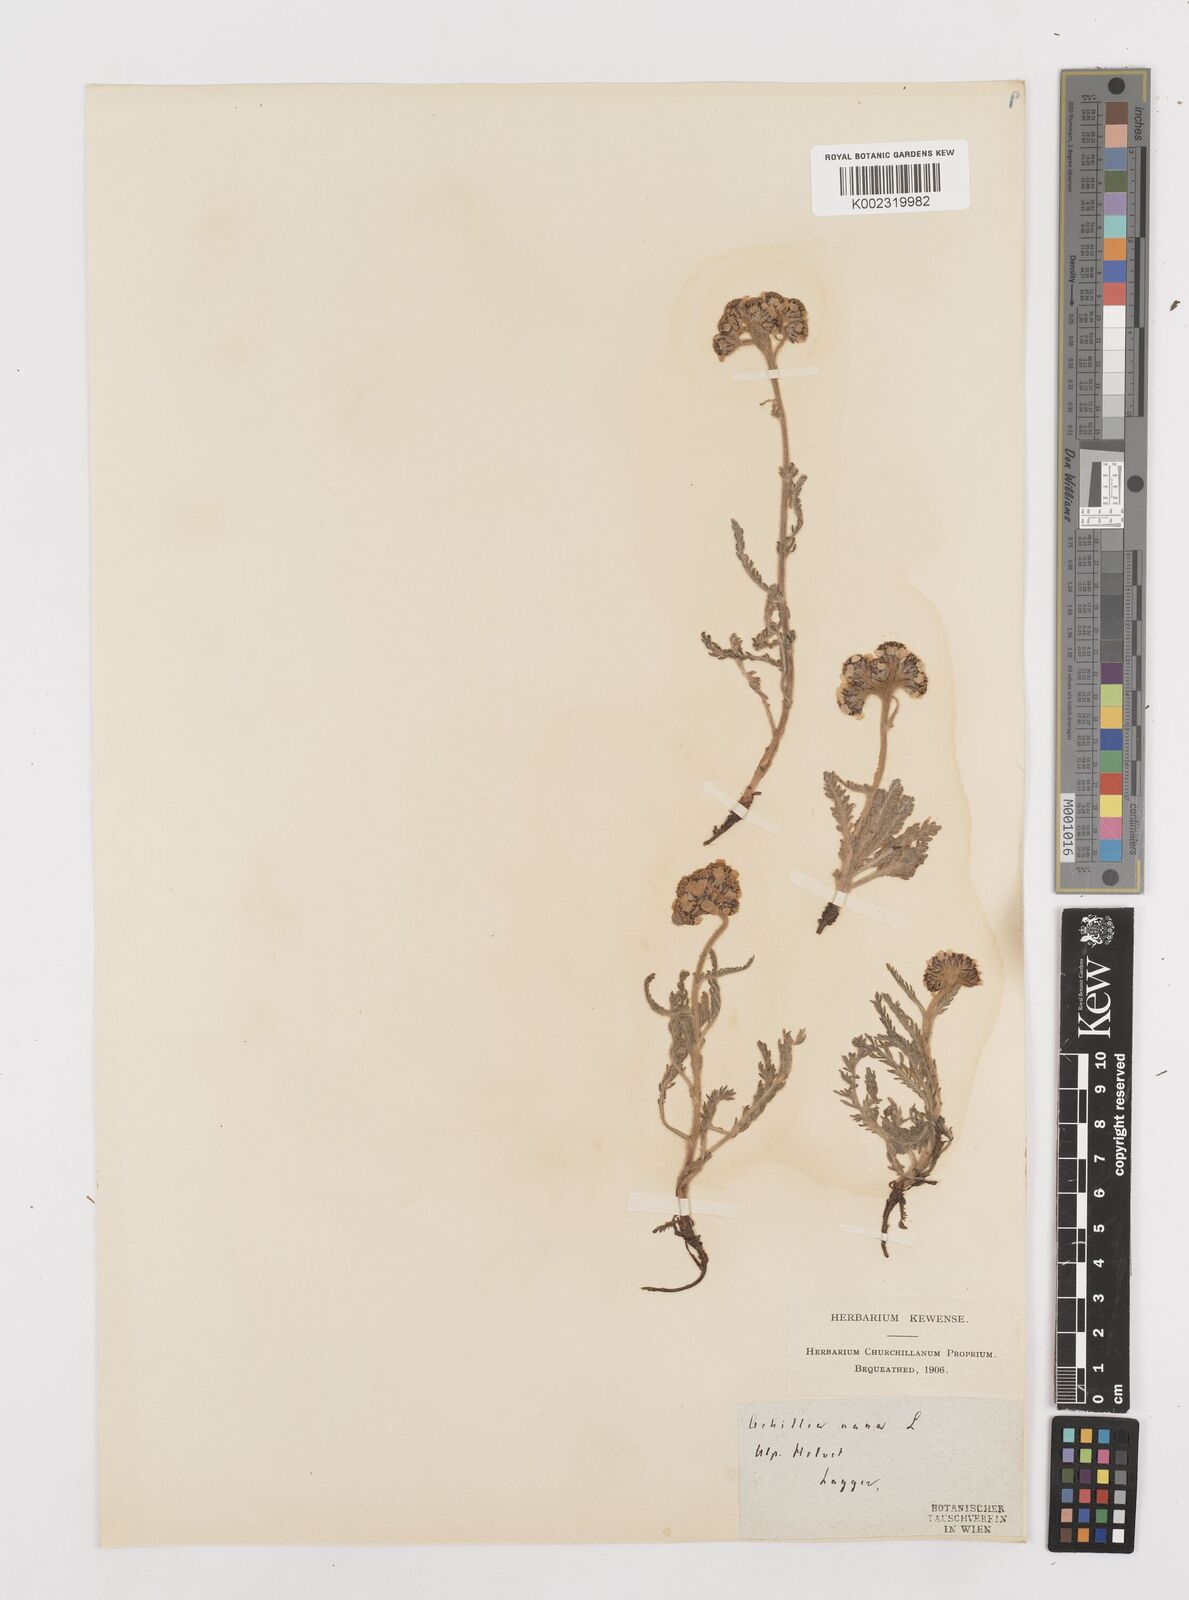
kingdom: Plantae
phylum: Tracheophyta
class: Magnoliopsida
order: Asterales
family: Asteraceae
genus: Achillea
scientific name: Achillea nana
